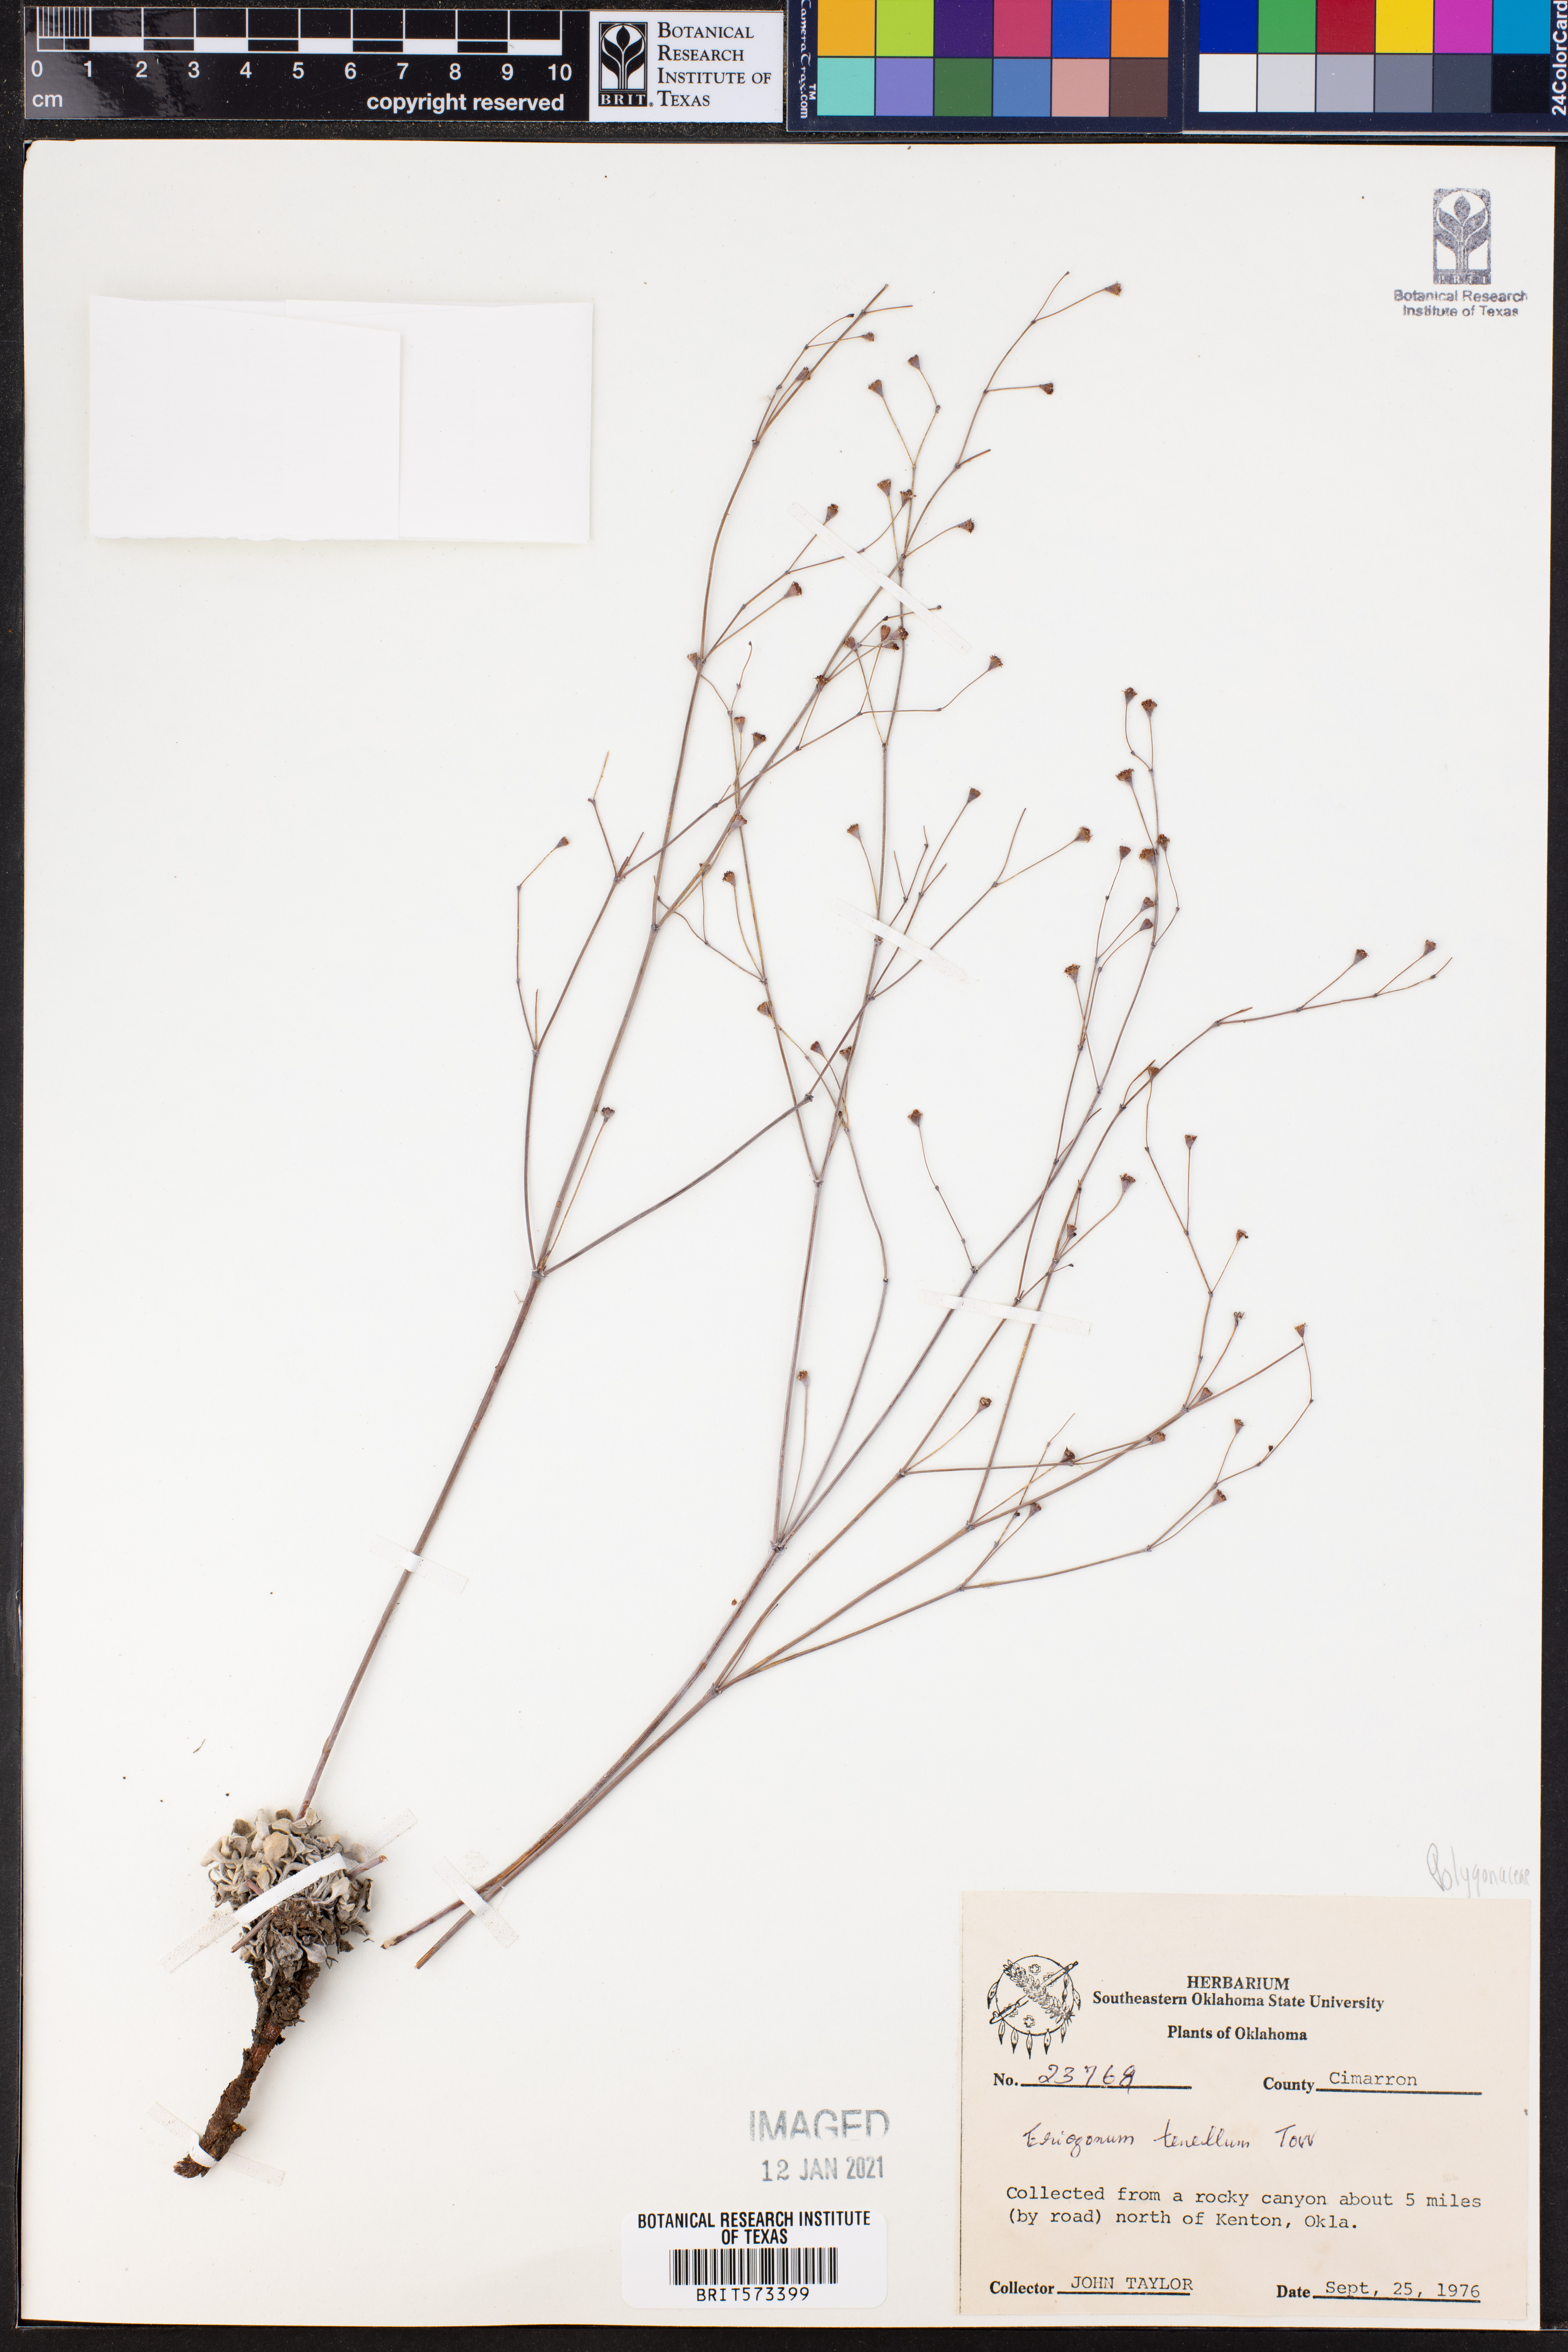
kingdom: Plantae
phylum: Tracheophyta
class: Magnoliopsida
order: Caryophyllales
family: Polygonaceae
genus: Eriogonum
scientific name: Eriogonum tenellum
